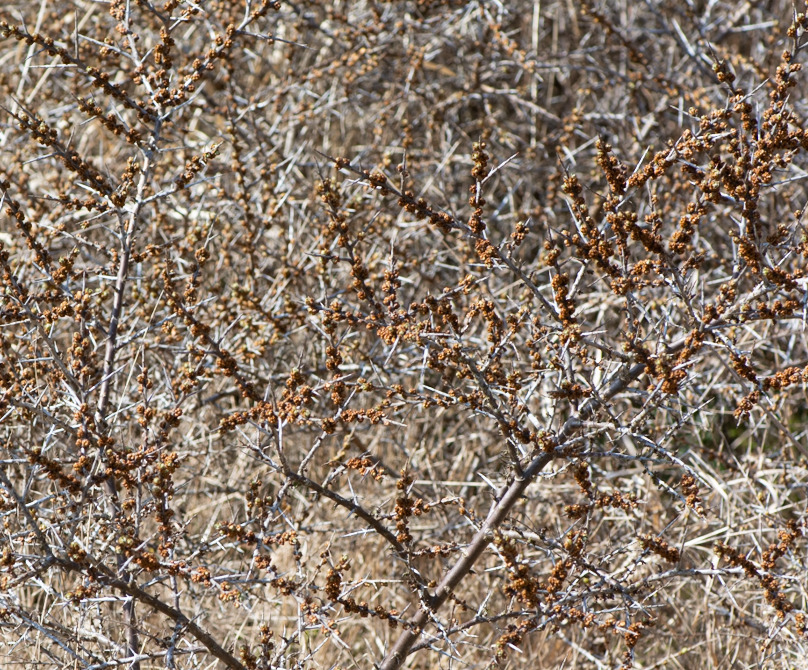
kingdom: Plantae
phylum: Tracheophyta
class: Magnoliopsida
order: Rosales
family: Elaeagnaceae
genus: Hippophae
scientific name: Hippophae rhamnoides
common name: Havtorn
